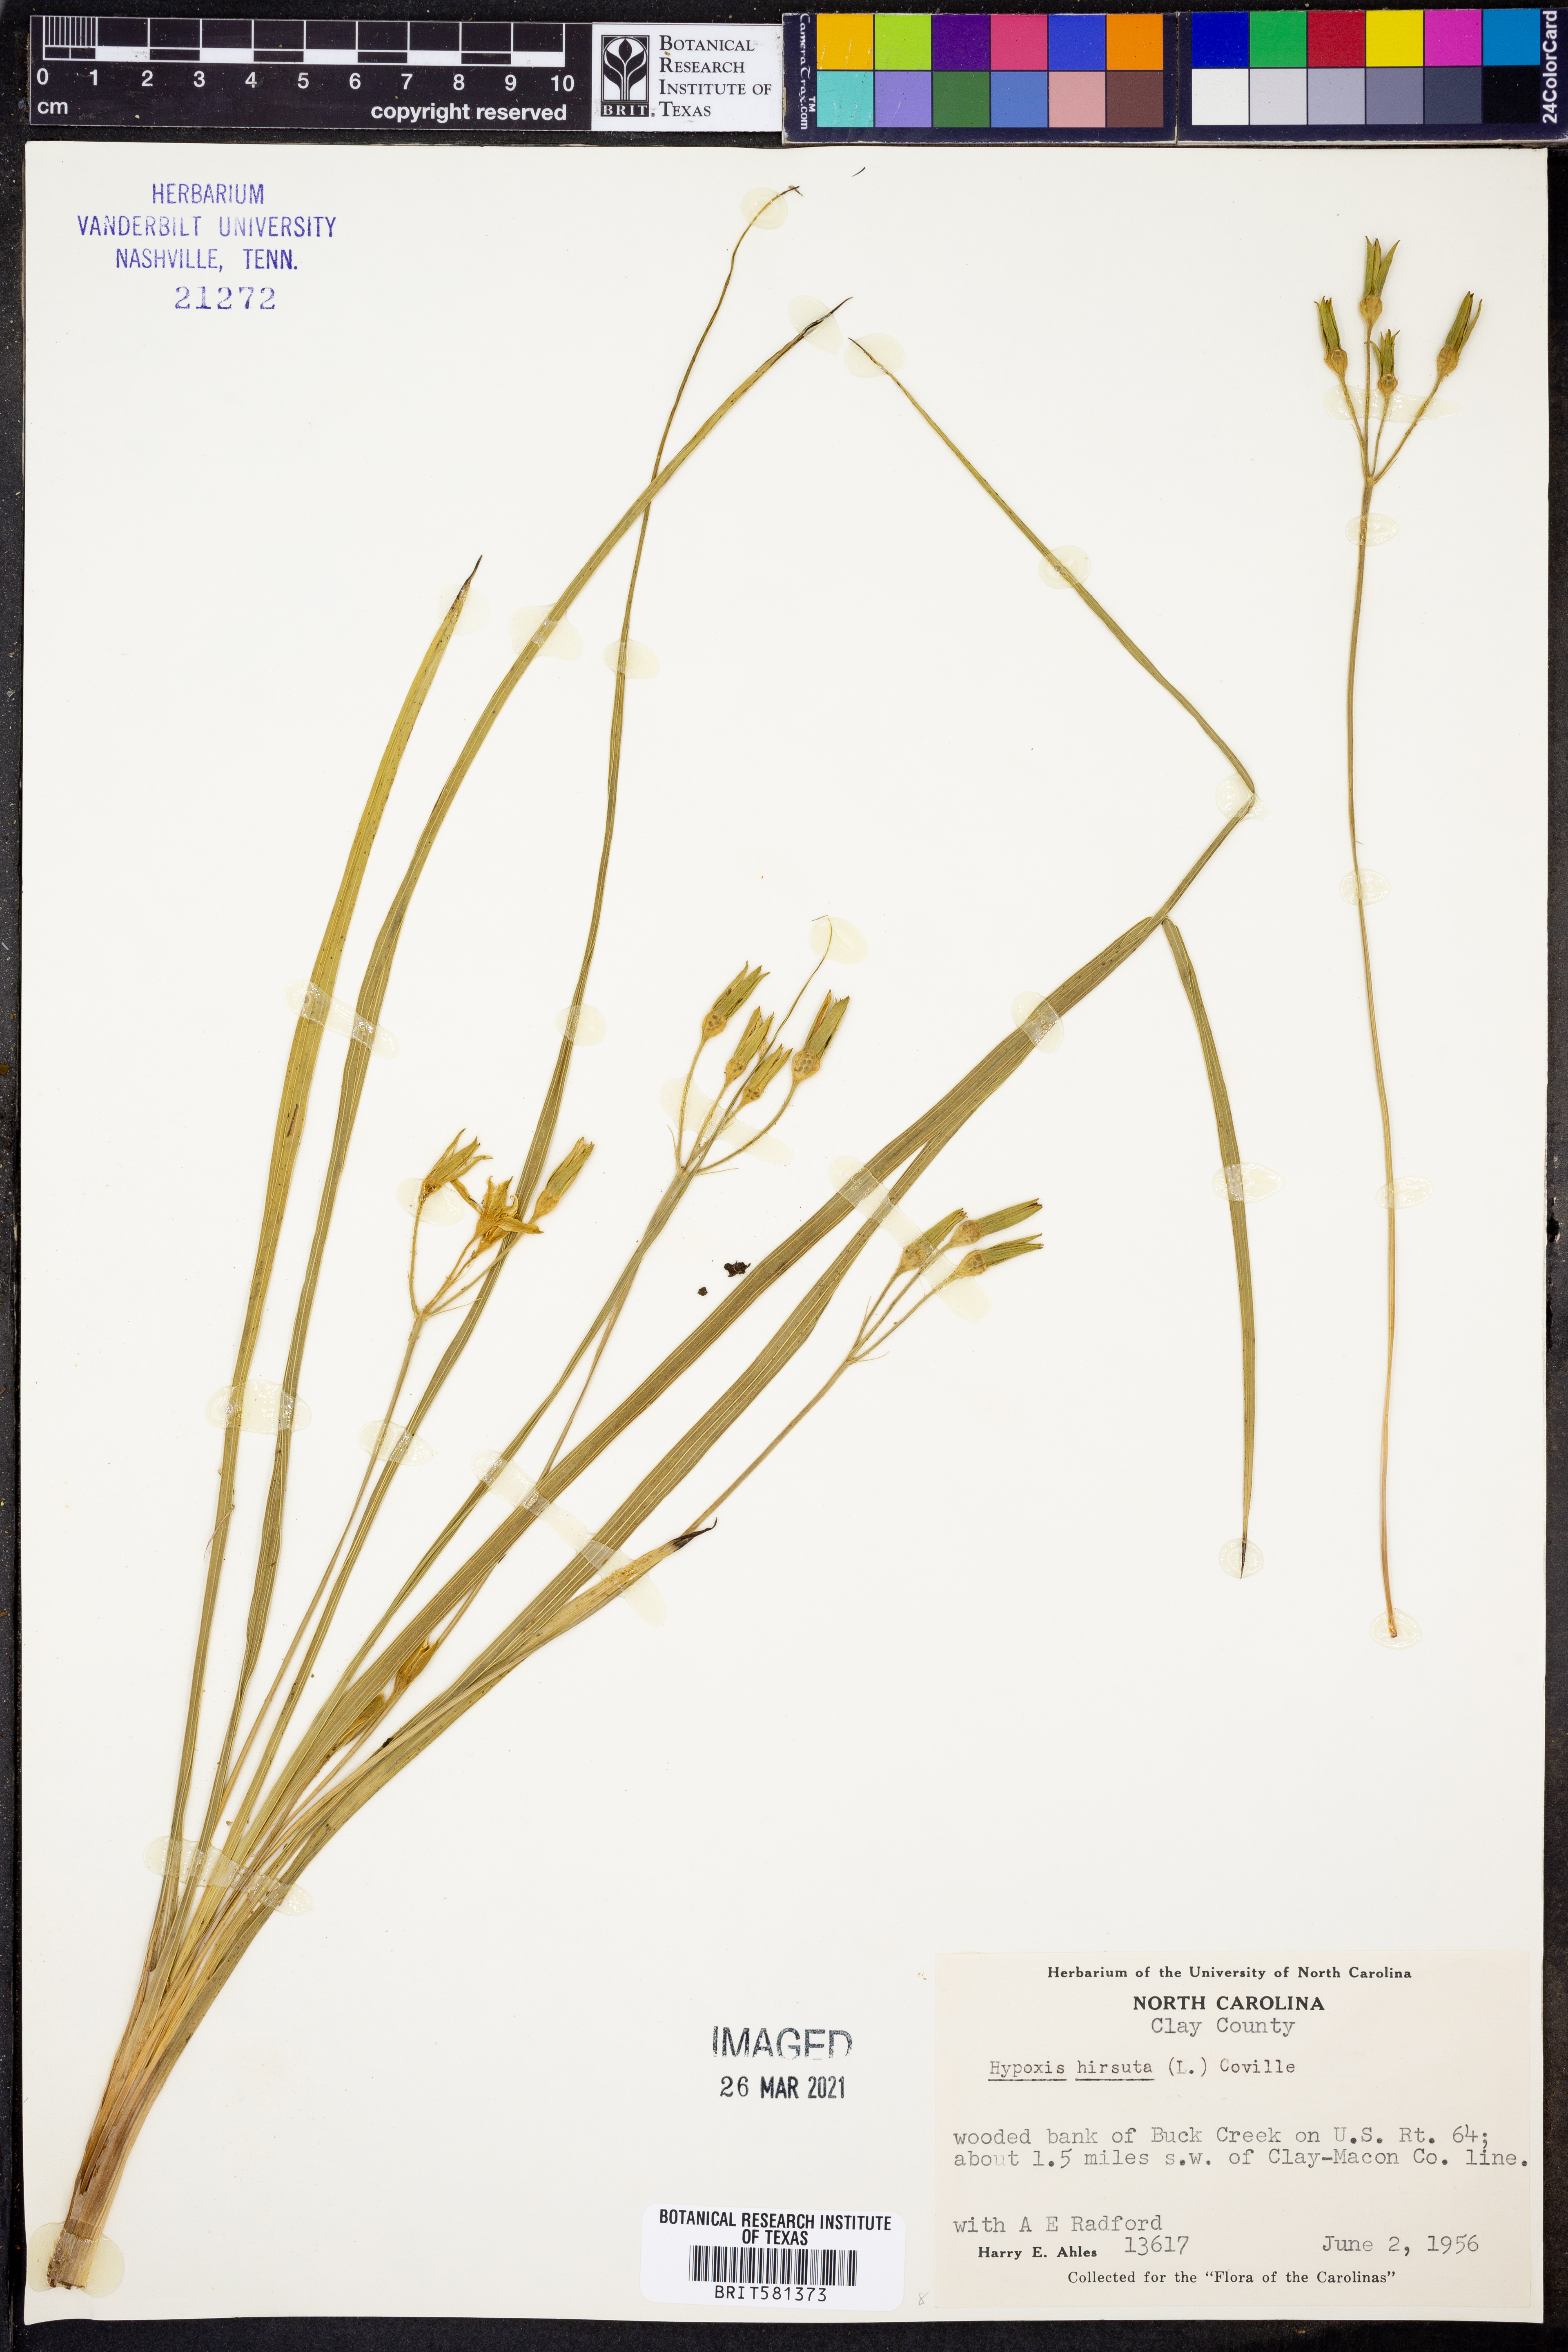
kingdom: Plantae
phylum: Tracheophyta
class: Liliopsida
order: Asparagales
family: Hypoxidaceae
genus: Hypoxis
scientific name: Hypoxis hirsuta
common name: Common goldstar
